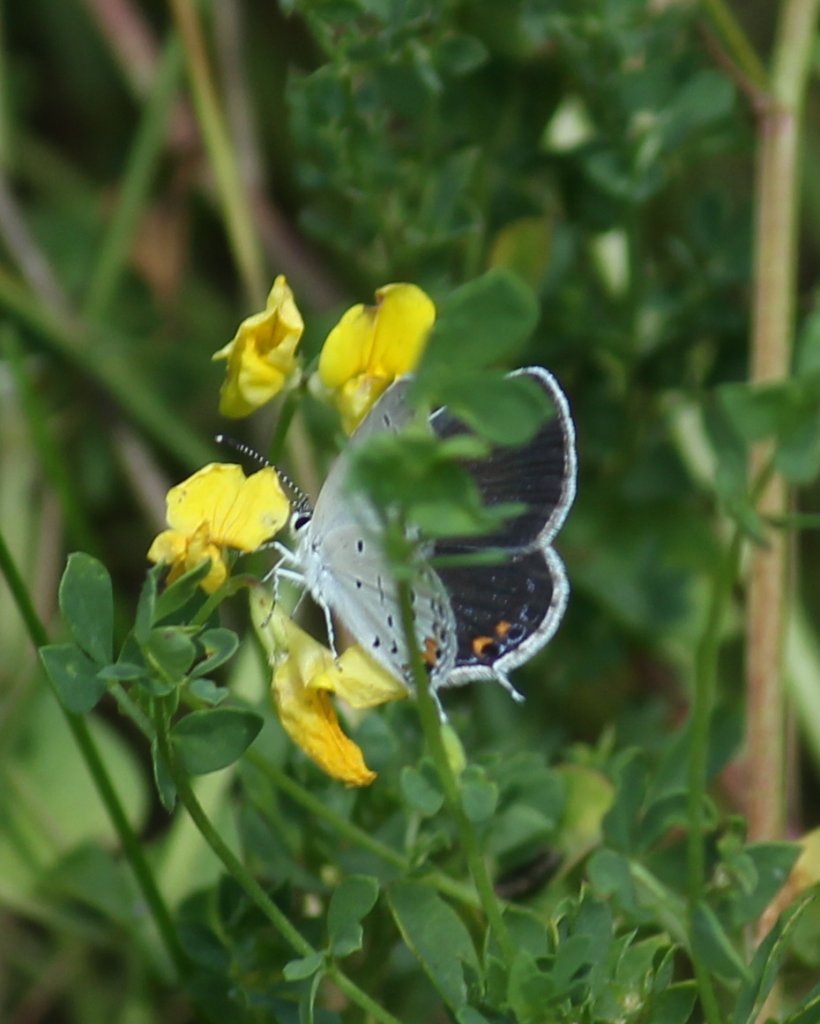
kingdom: Animalia
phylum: Arthropoda
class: Insecta
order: Lepidoptera
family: Lycaenidae
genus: Elkalyce
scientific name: Elkalyce comyntas
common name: Eastern Tailed-Blue
